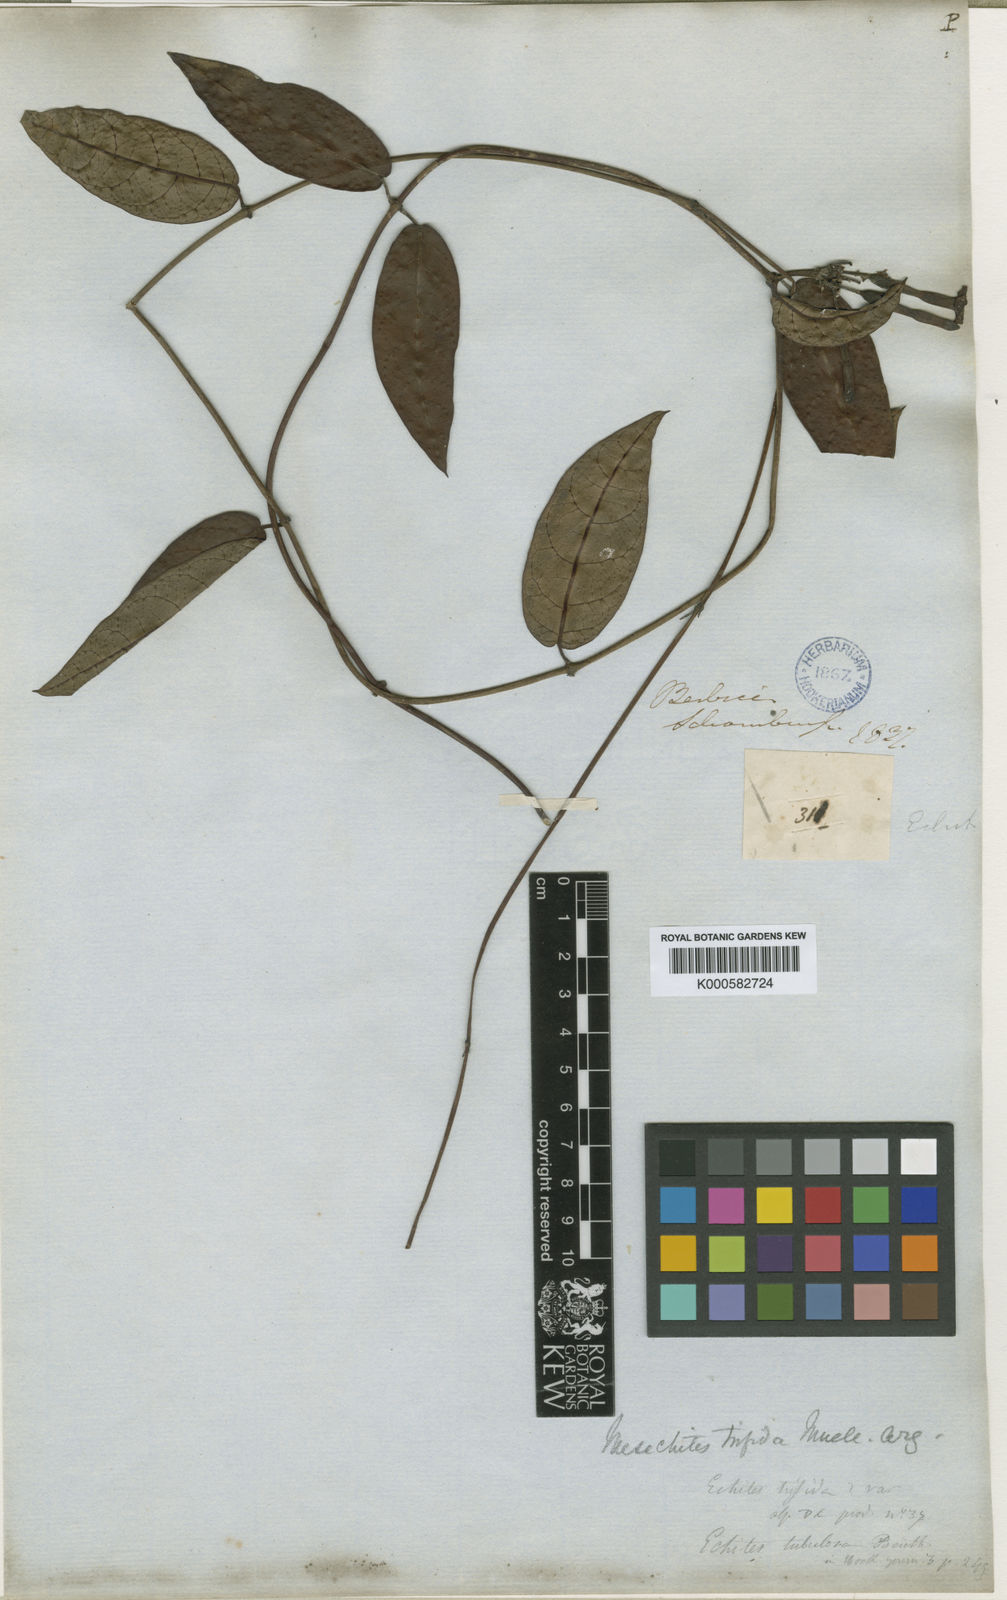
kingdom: Plantae
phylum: Tracheophyta
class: Magnoliopsida
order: Gentianales
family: Apocynaceae
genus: Mesechites
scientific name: Mesechites
